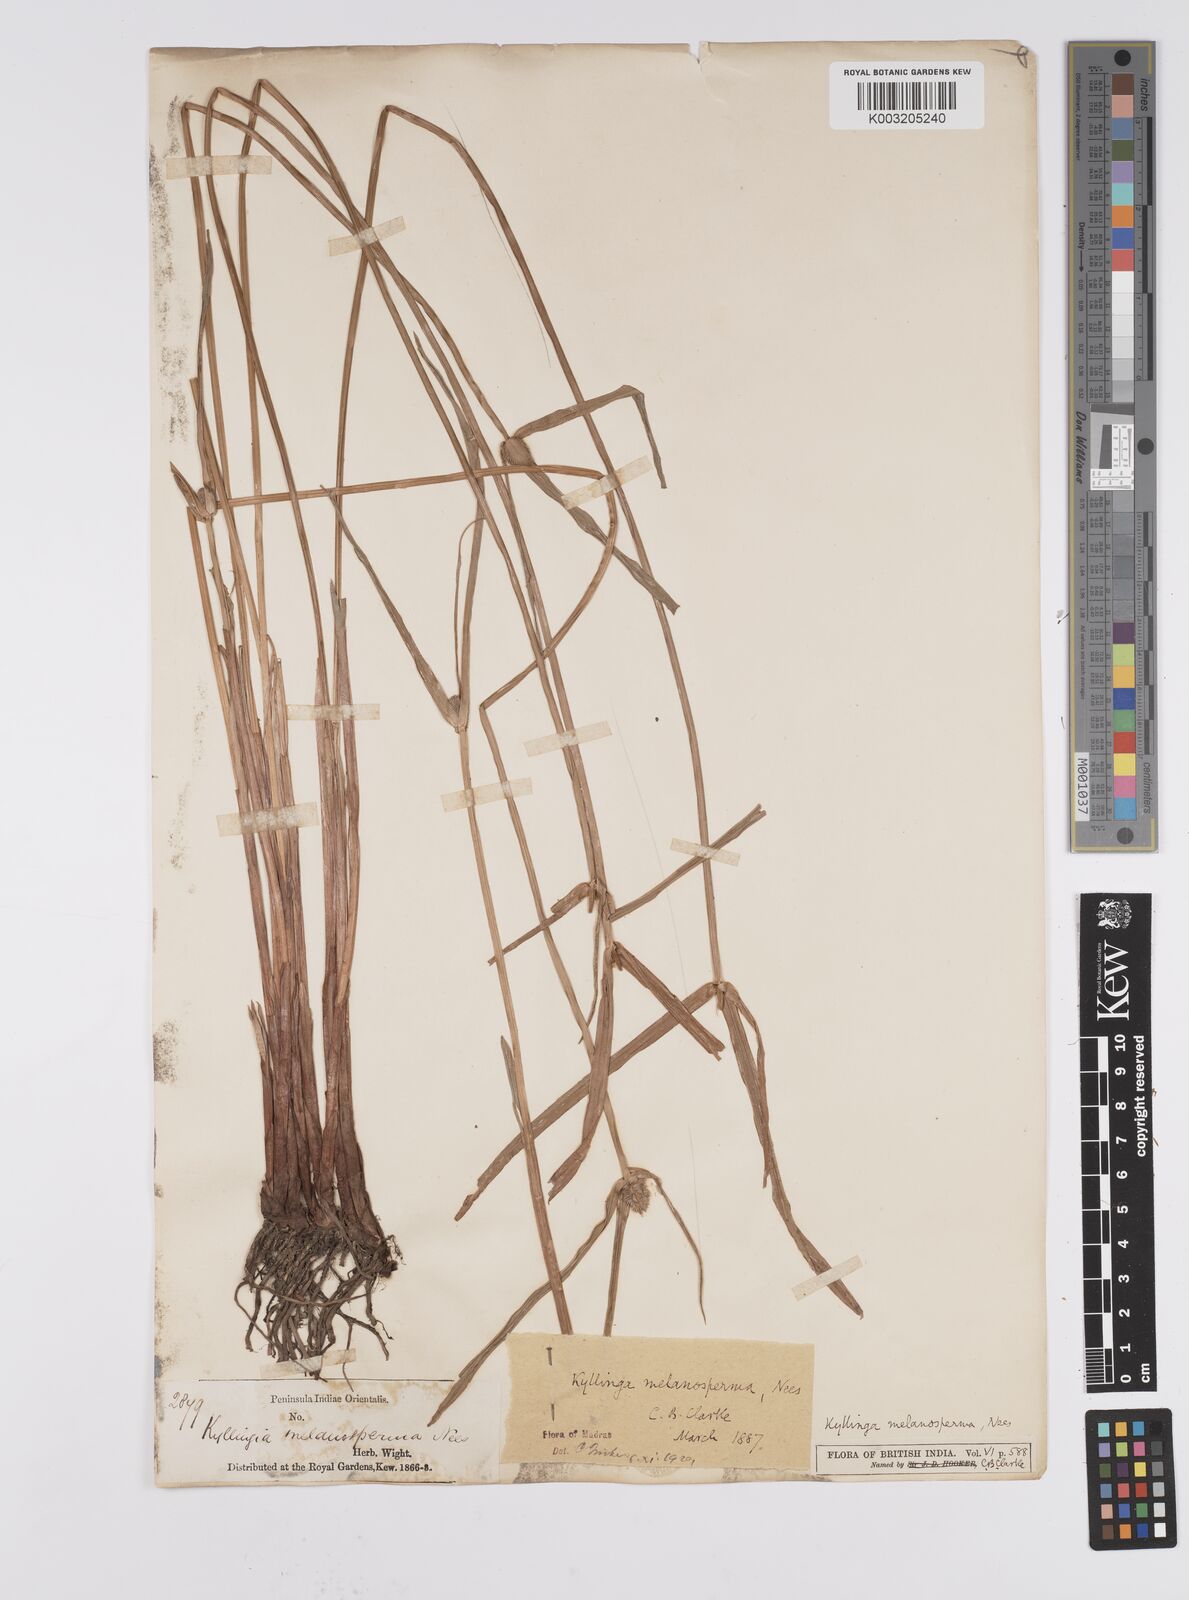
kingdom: Plantae
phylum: Tracheophyta
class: Liliopsida
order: Poales
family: Cyperaceae
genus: Cyperus
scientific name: Cyperus melanospermus
